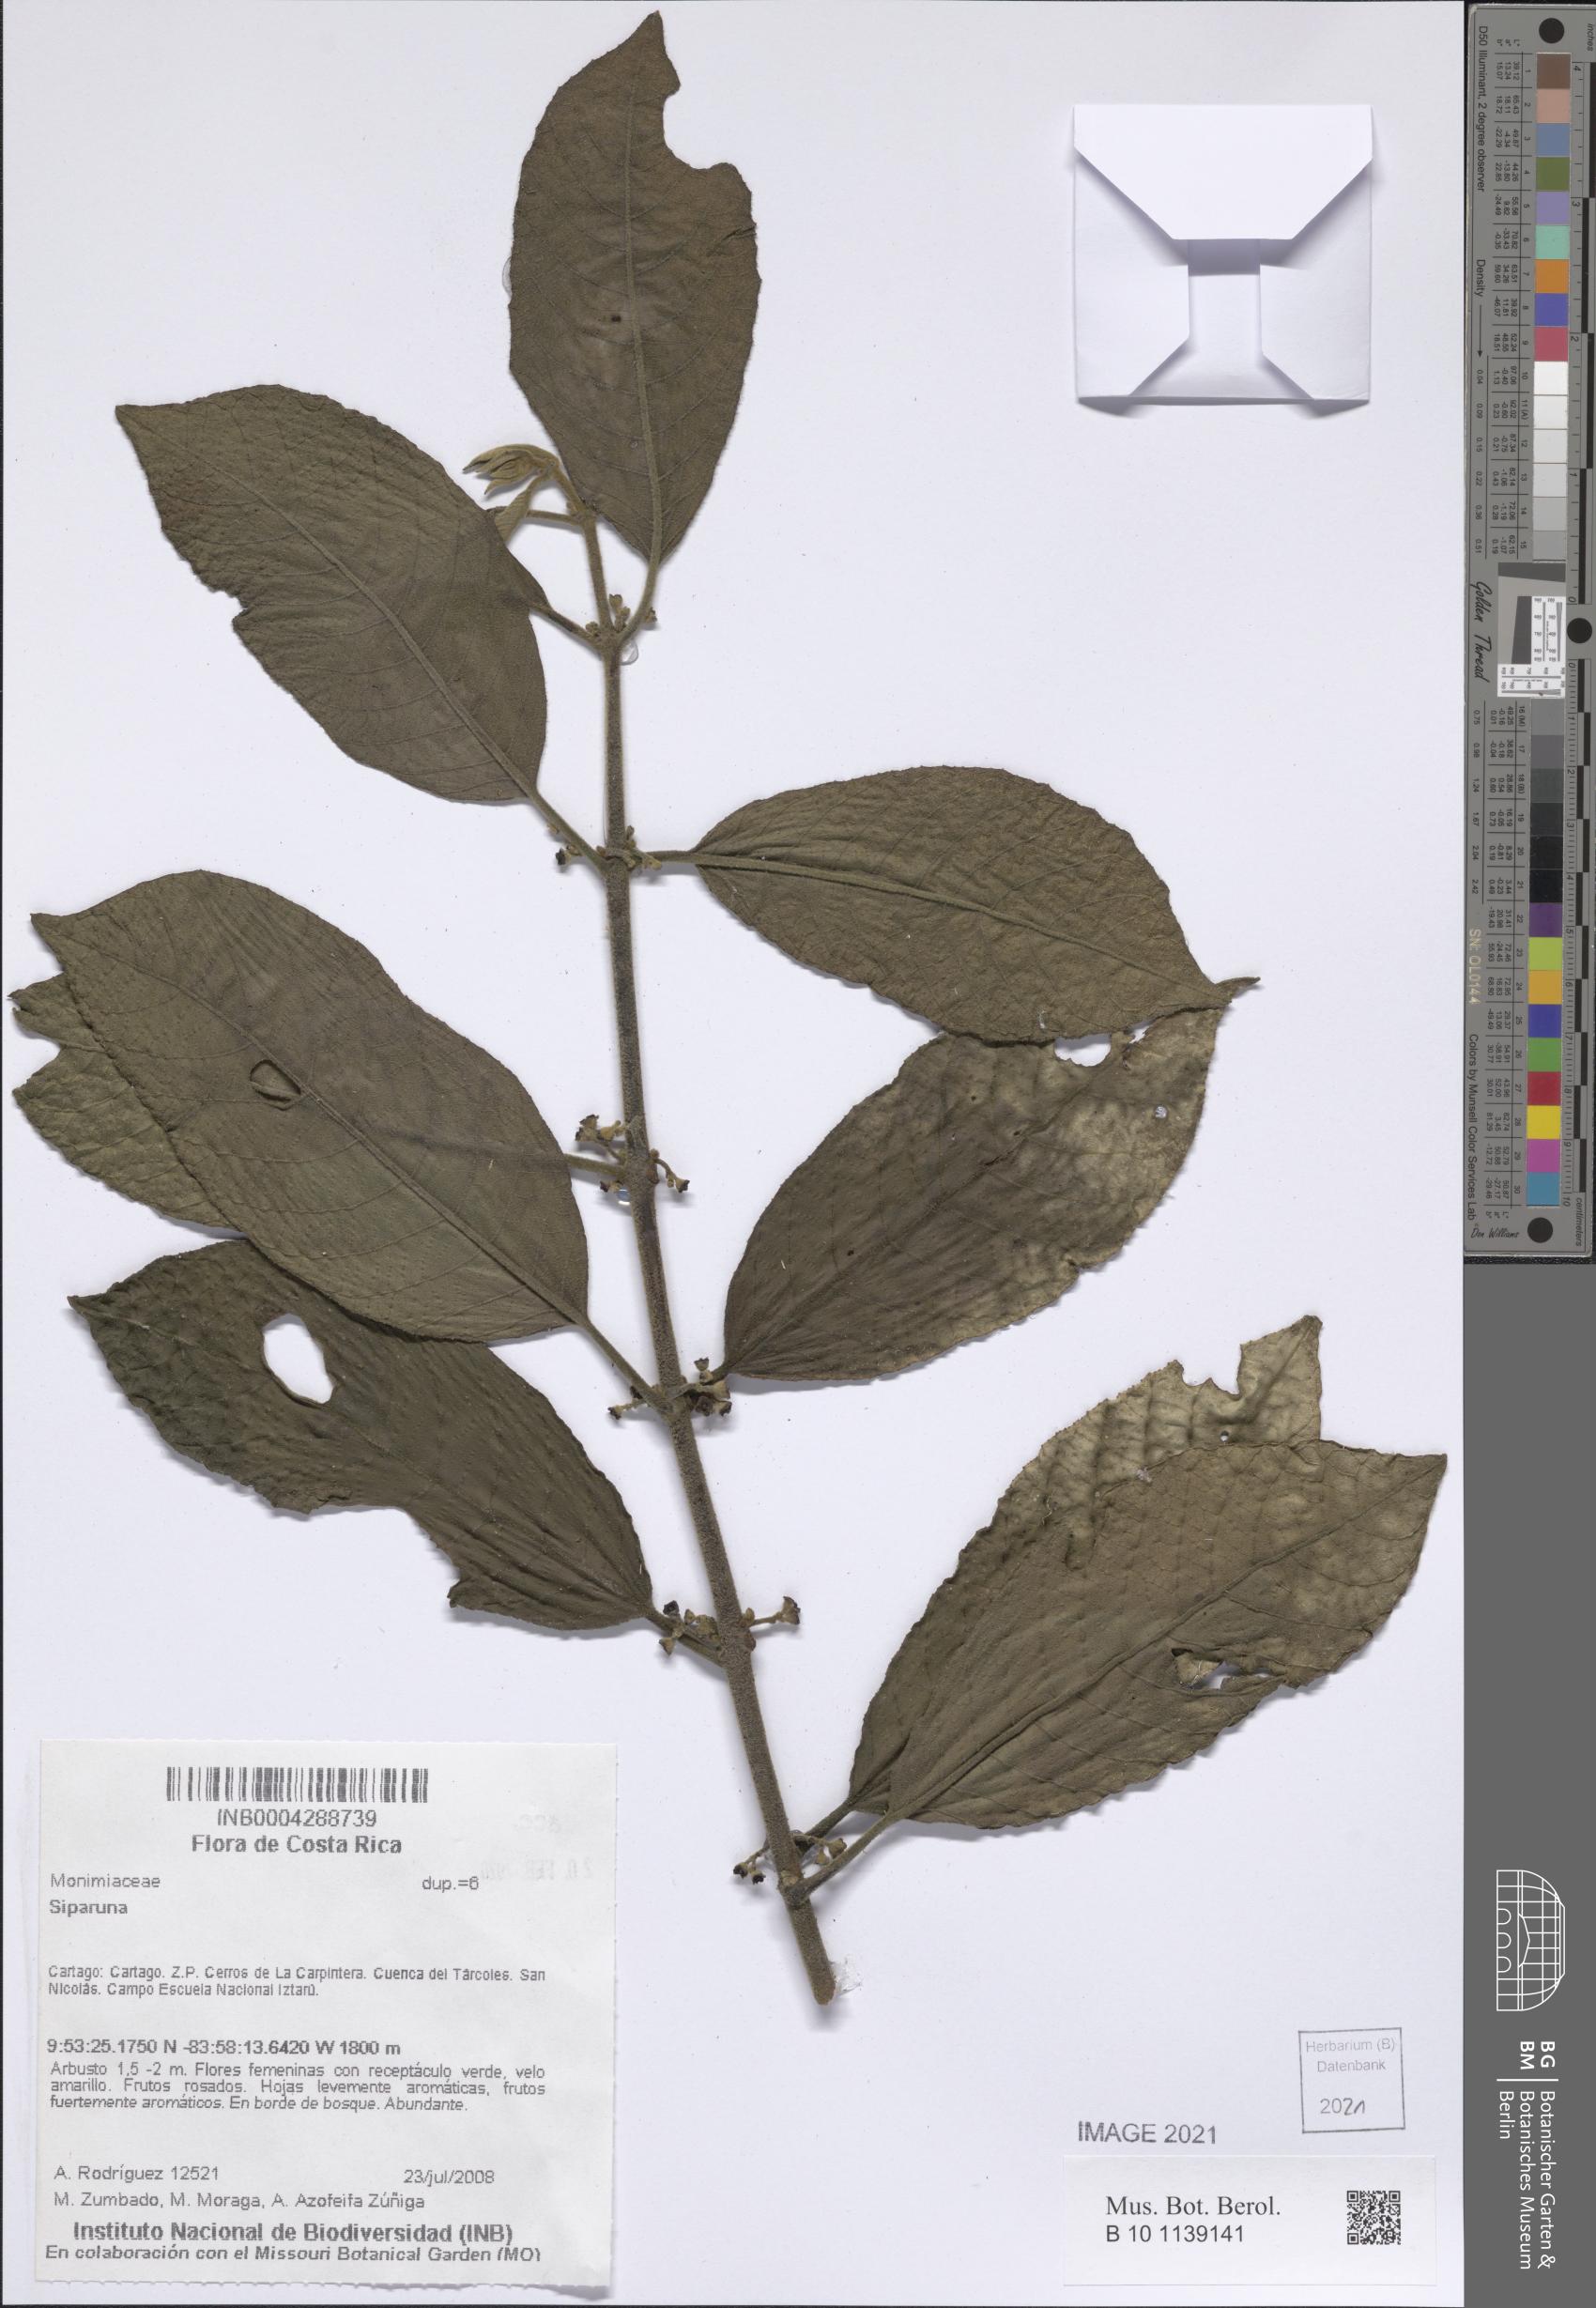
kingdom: Plantae
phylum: Tracheophyta
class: Magnoliopsida
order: Laurales
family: Siparunaceae
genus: Siparuna
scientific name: Siparuna
